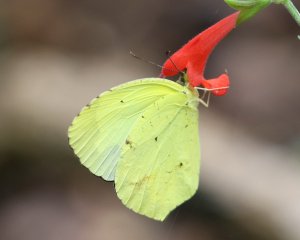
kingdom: Animalia
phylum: Arthropoda
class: Insecta
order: Lepidoptera
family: Pieridae
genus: Eurema
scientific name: Eurema boisduvaliana
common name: Boisduval's Yellow
